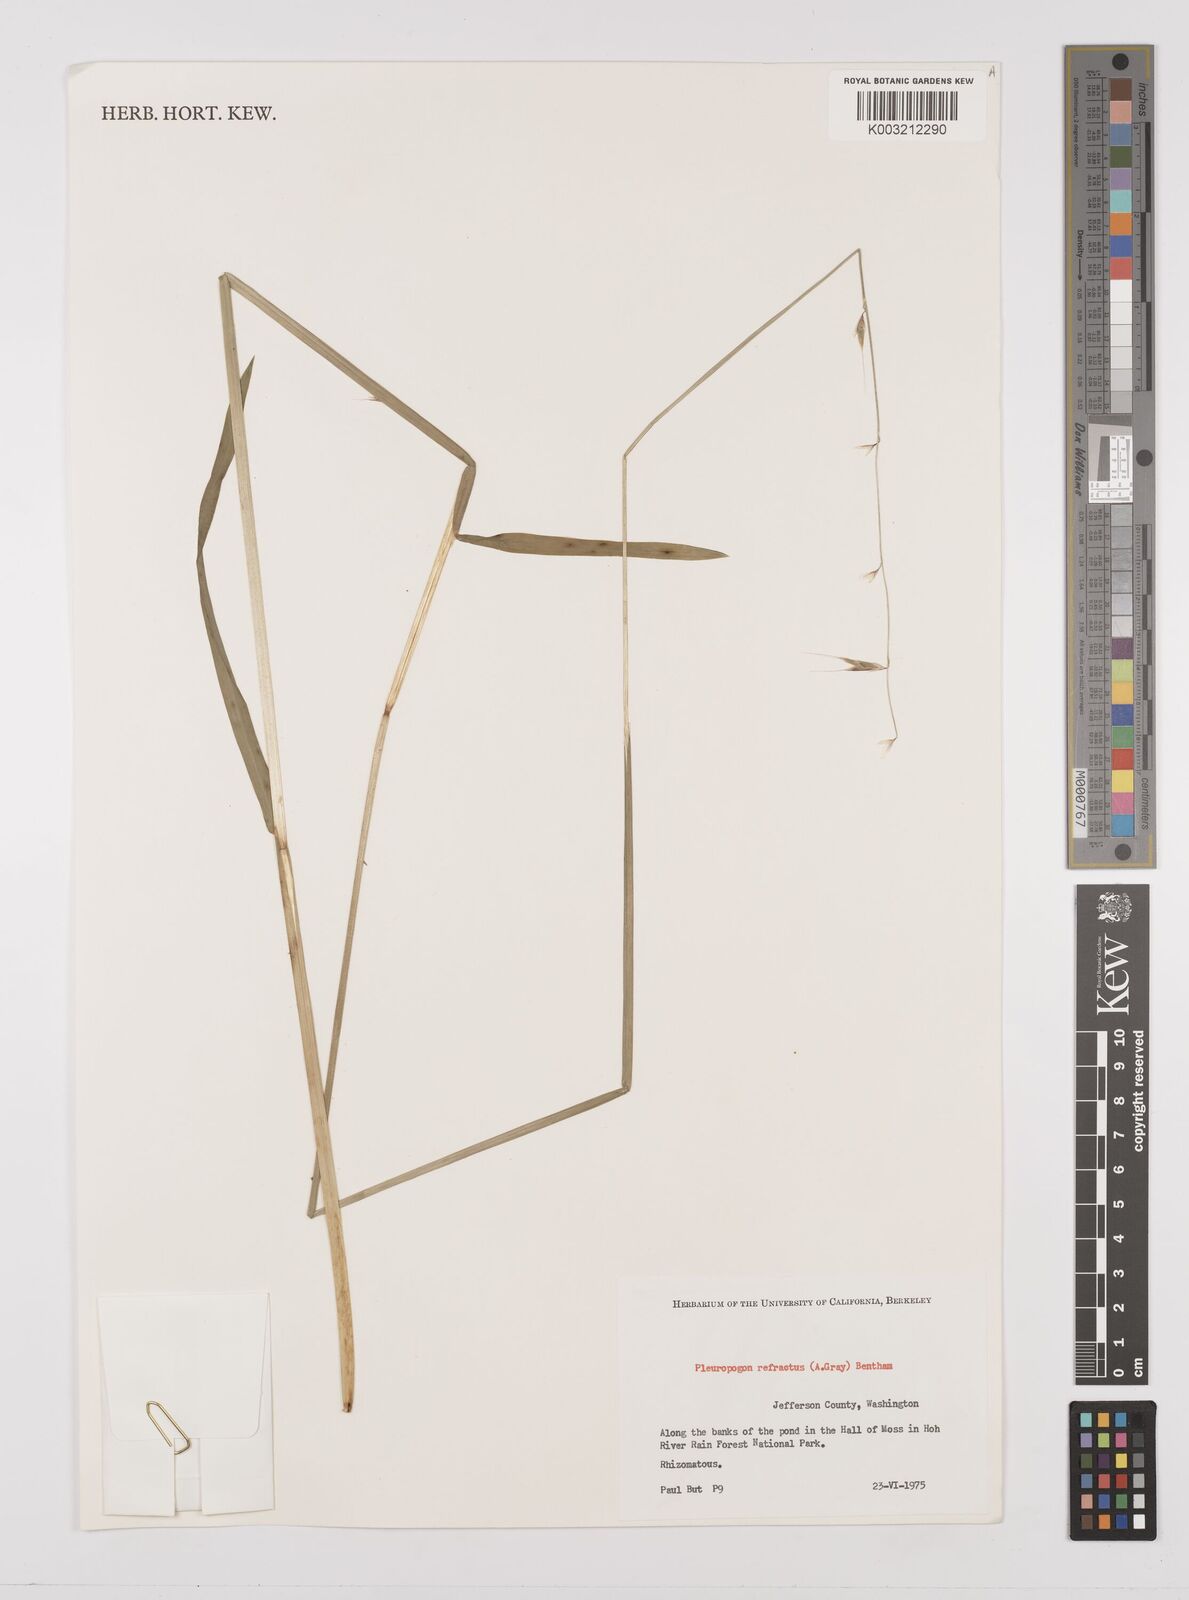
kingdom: Plantae
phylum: Tracheophyta
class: Liliopsida
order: Poales
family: Poaceae
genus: Pleuropogon
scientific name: Pleuropogon refractus
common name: Nodding false semaphoregrass
